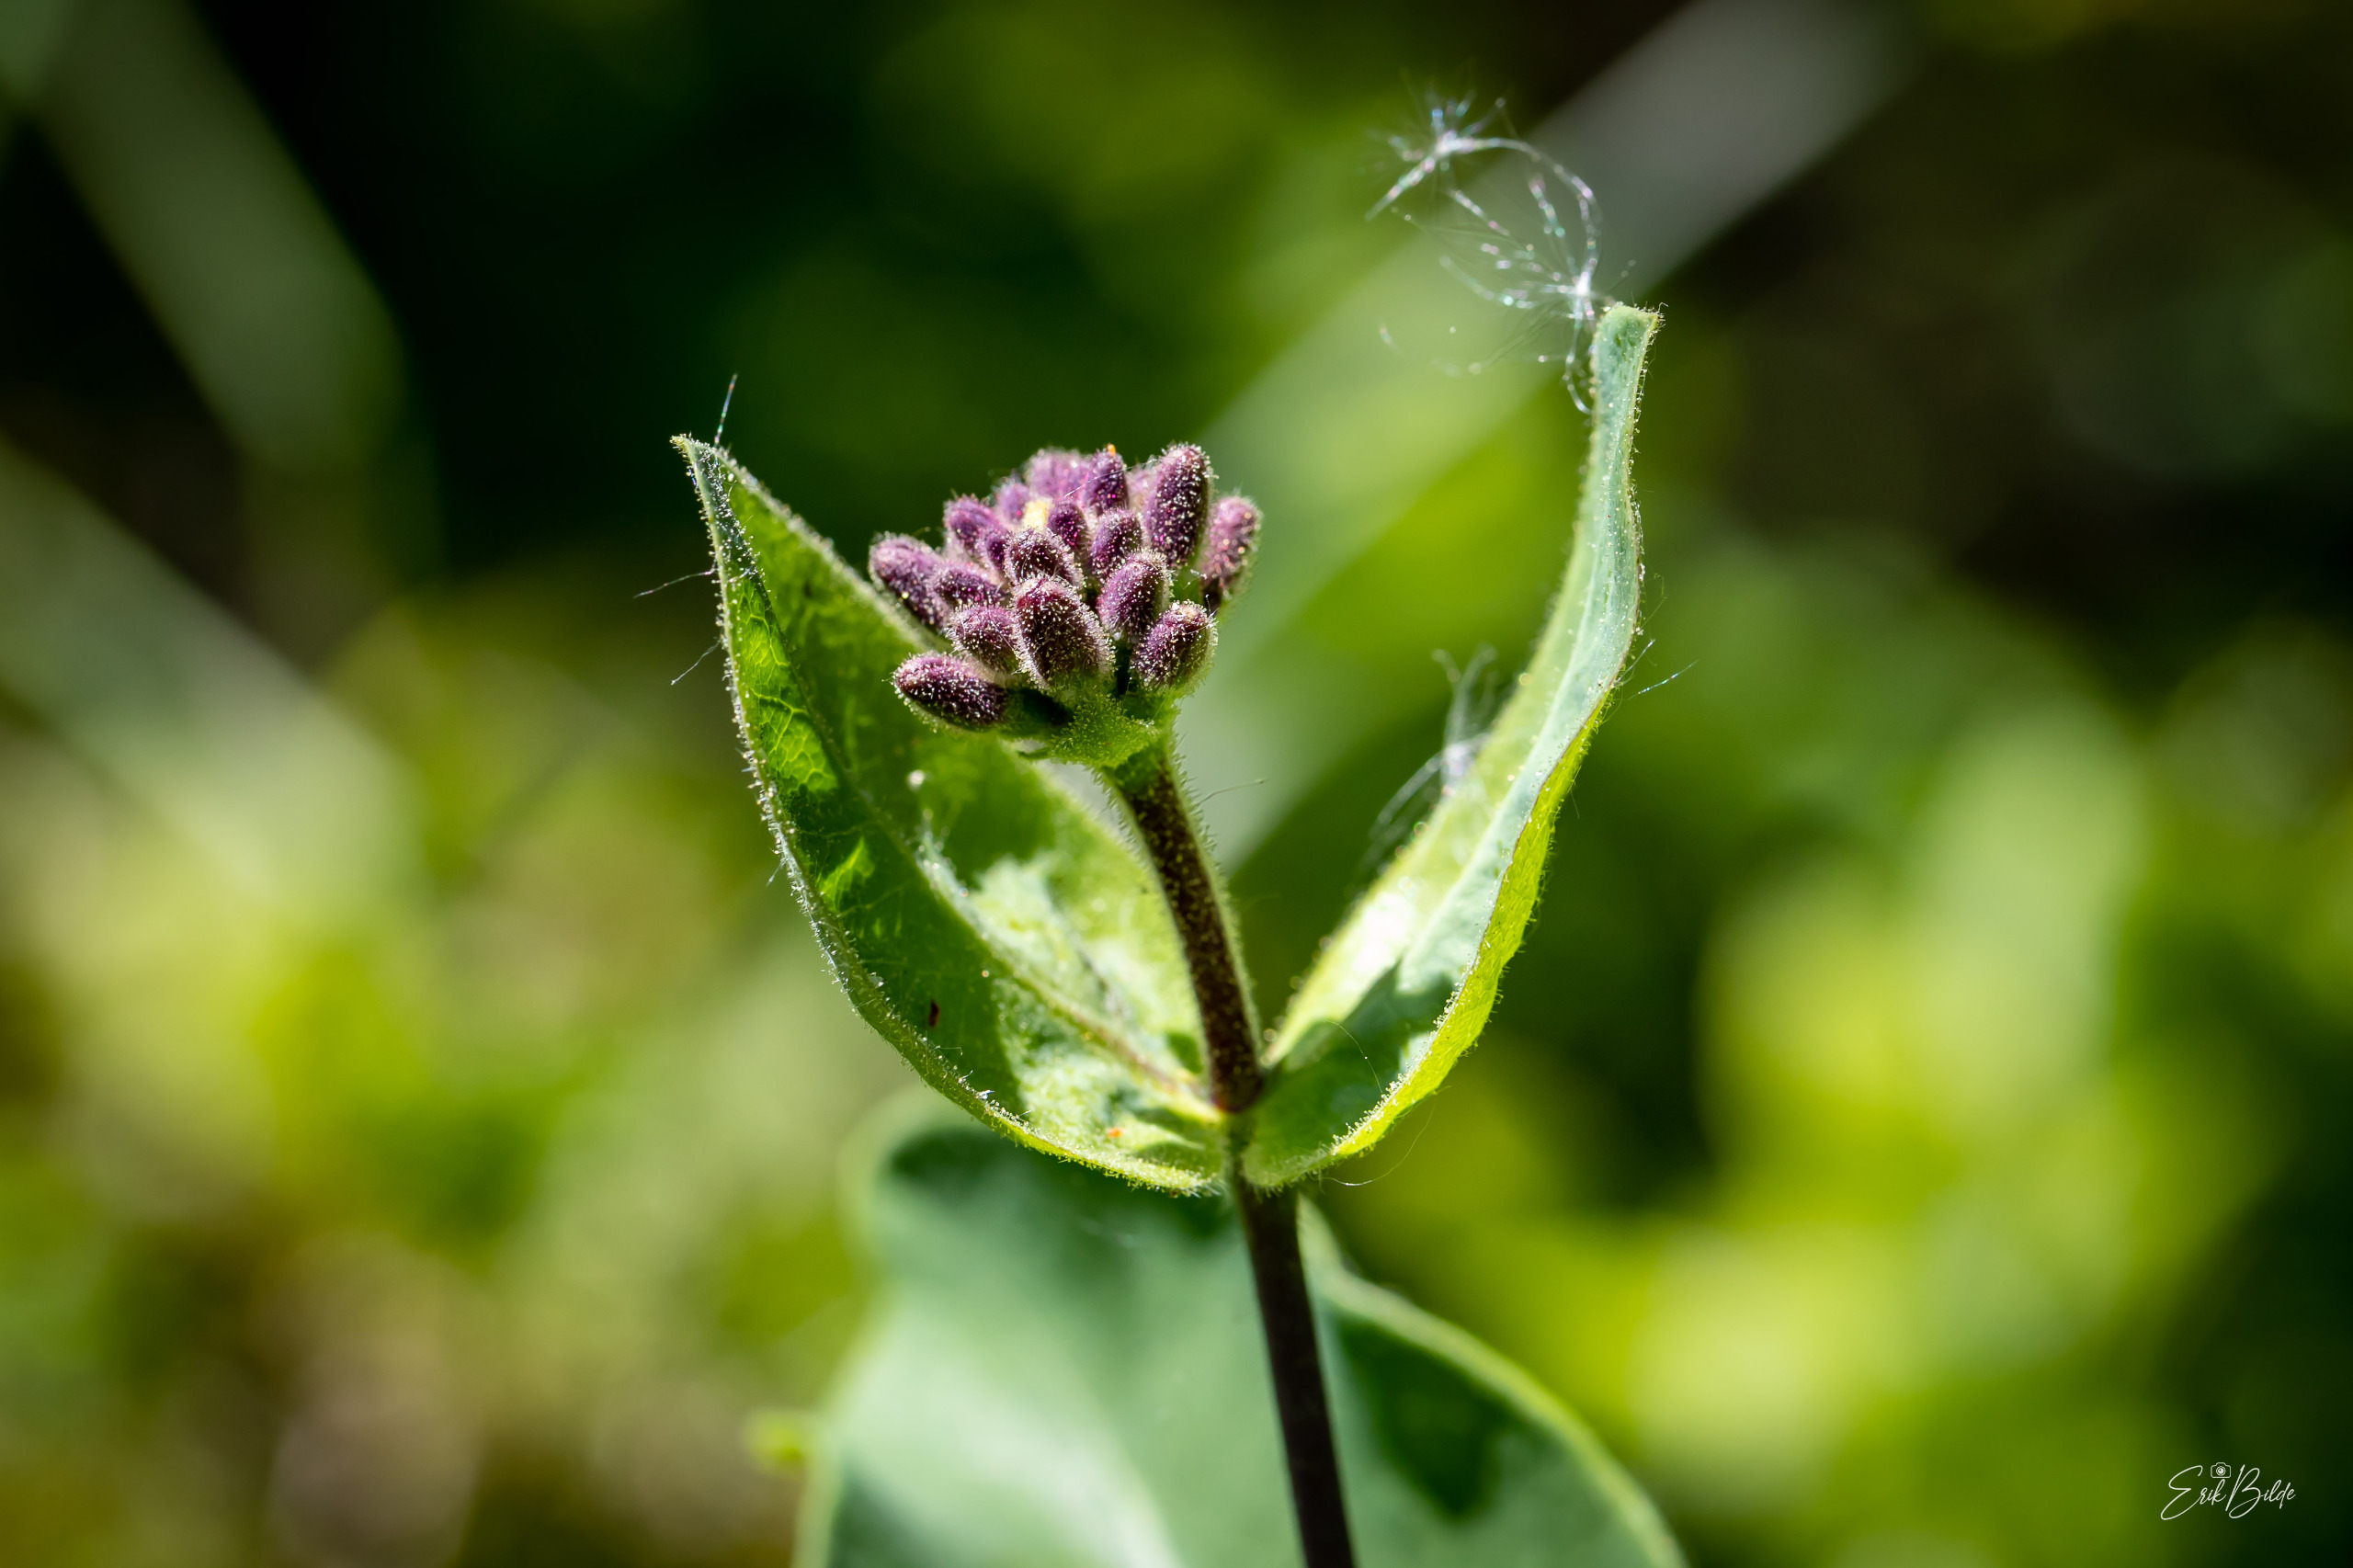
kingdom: Plantae
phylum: Tracheophyta
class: Magnoliopsida
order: Dipsacales
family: Caprifoliaceae
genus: Lonicera
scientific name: Lonicera periclymenum
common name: Almindelig gedeblad
